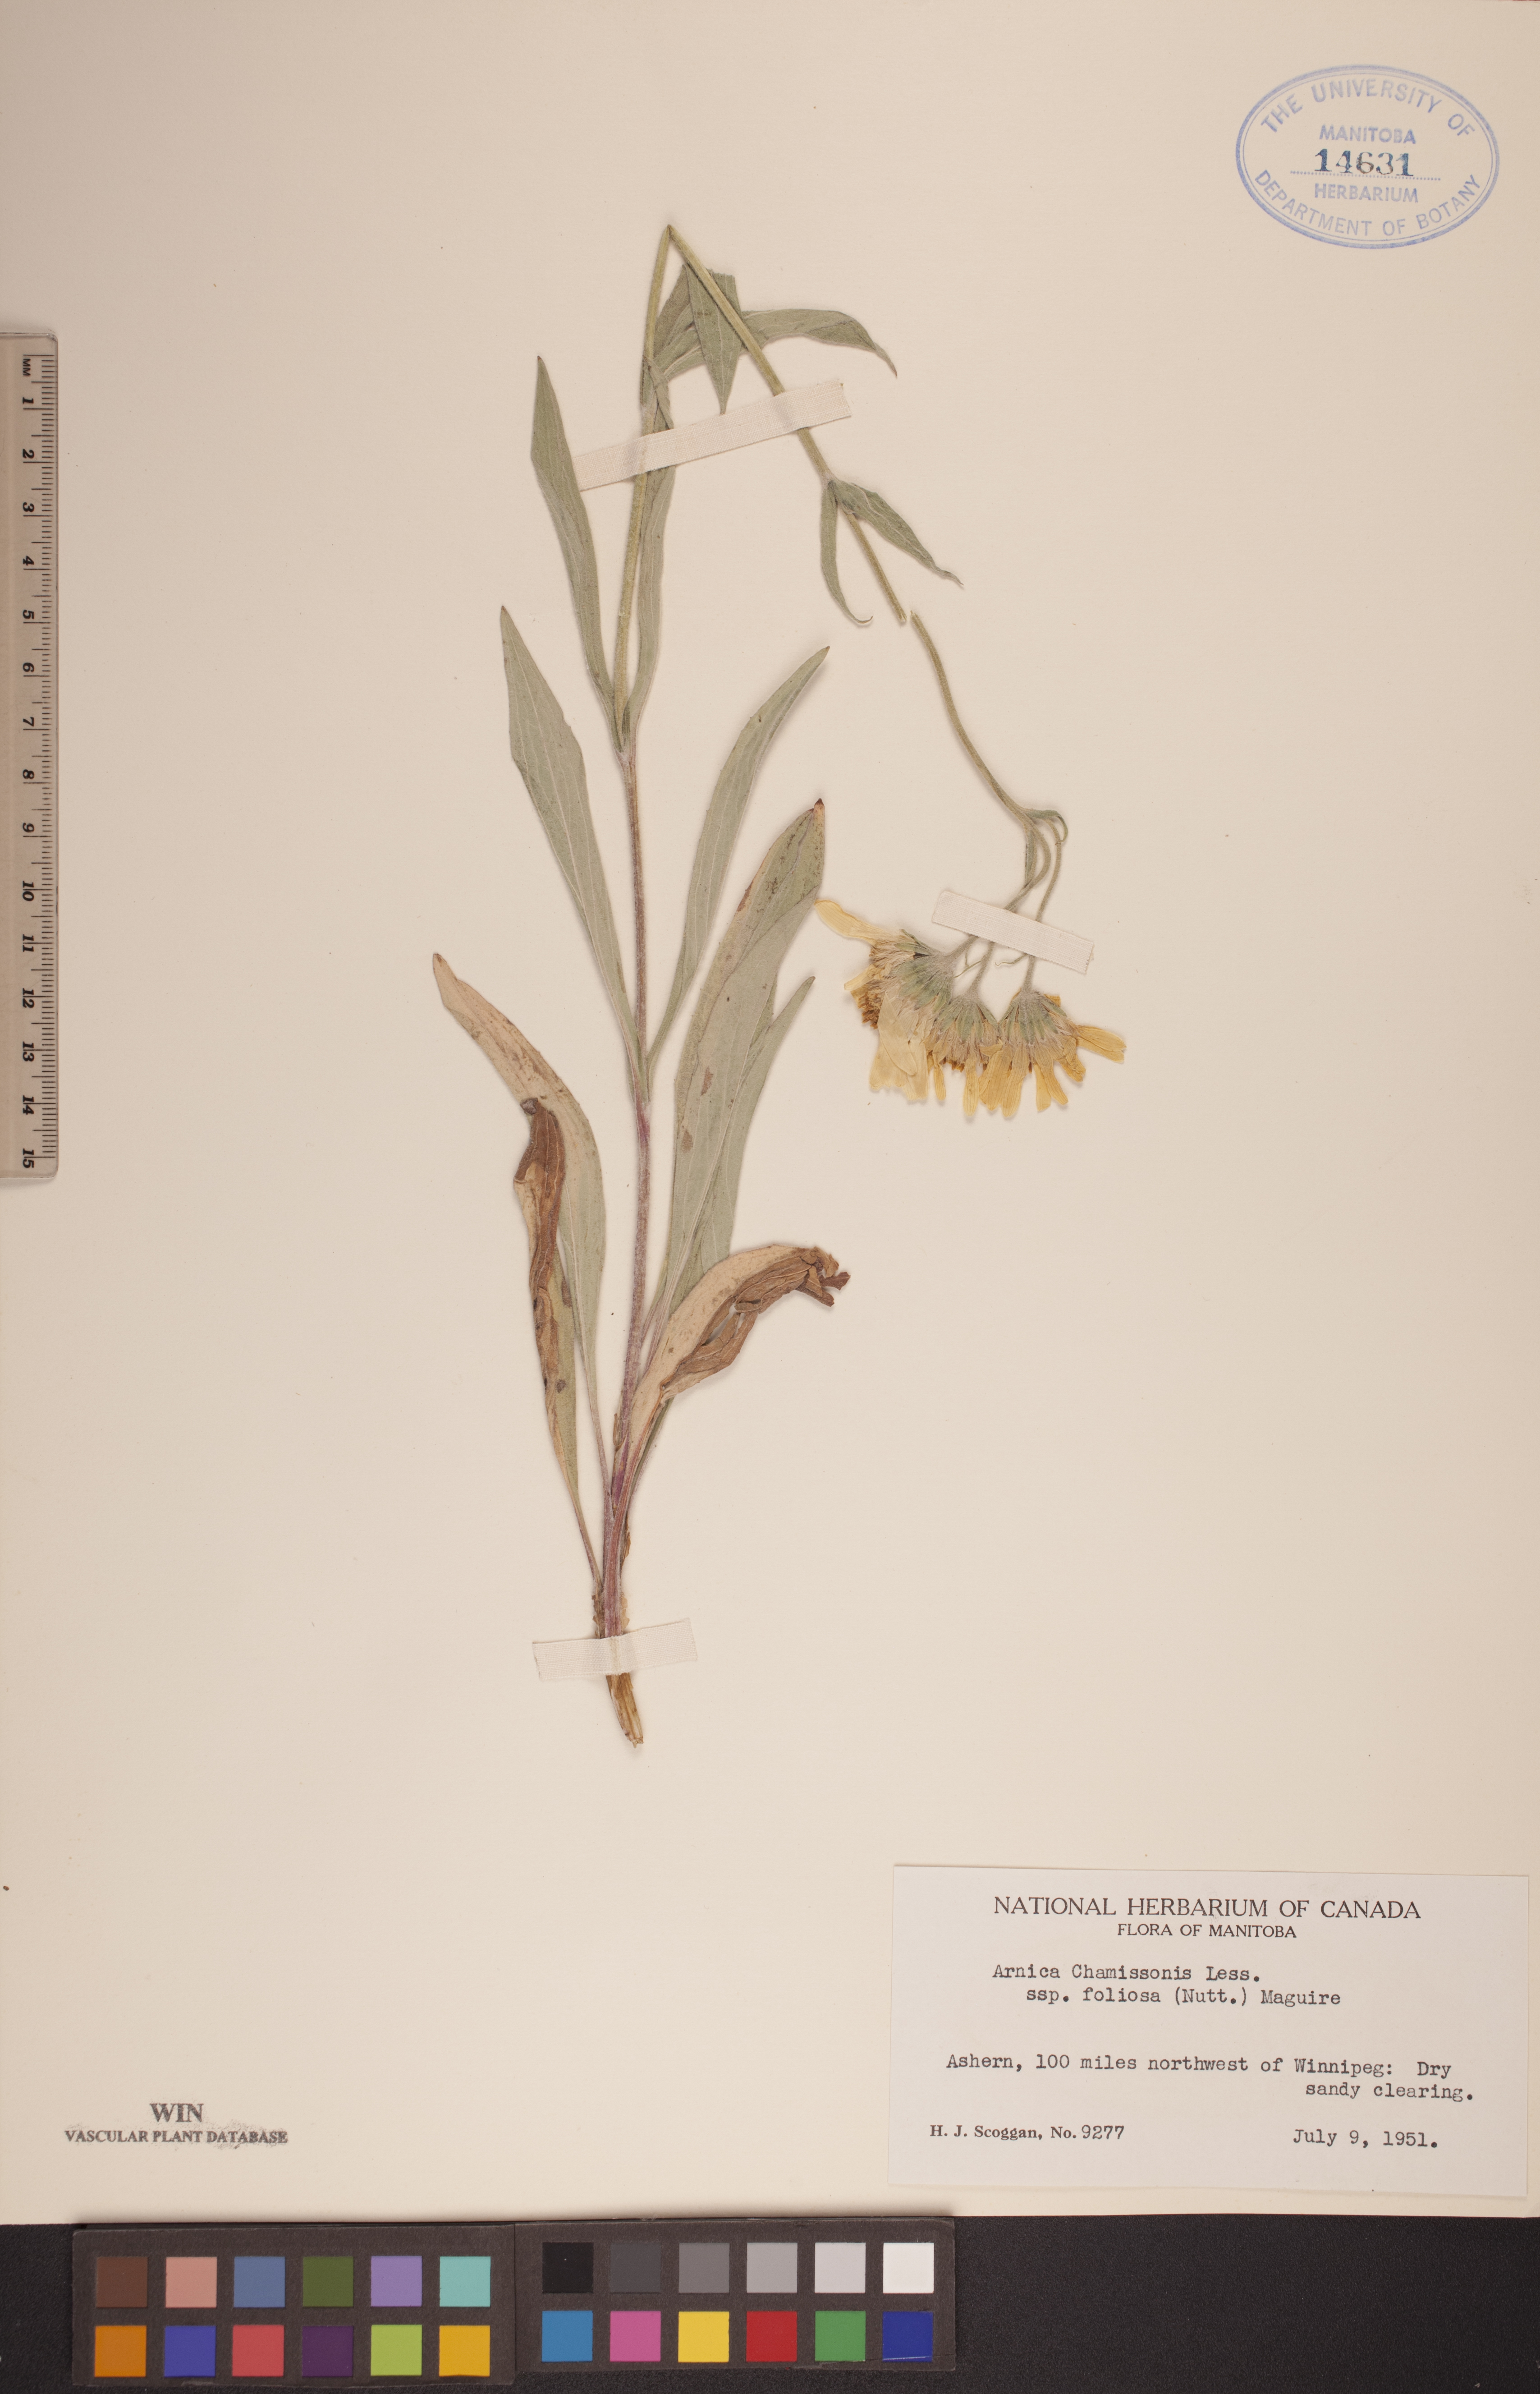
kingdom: Plantae
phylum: Tracheophyta
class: Magnoliopsida
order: Asterales
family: Asteraceae
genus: Arnica
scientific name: Arnica chamissonis
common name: Leafy arnica
